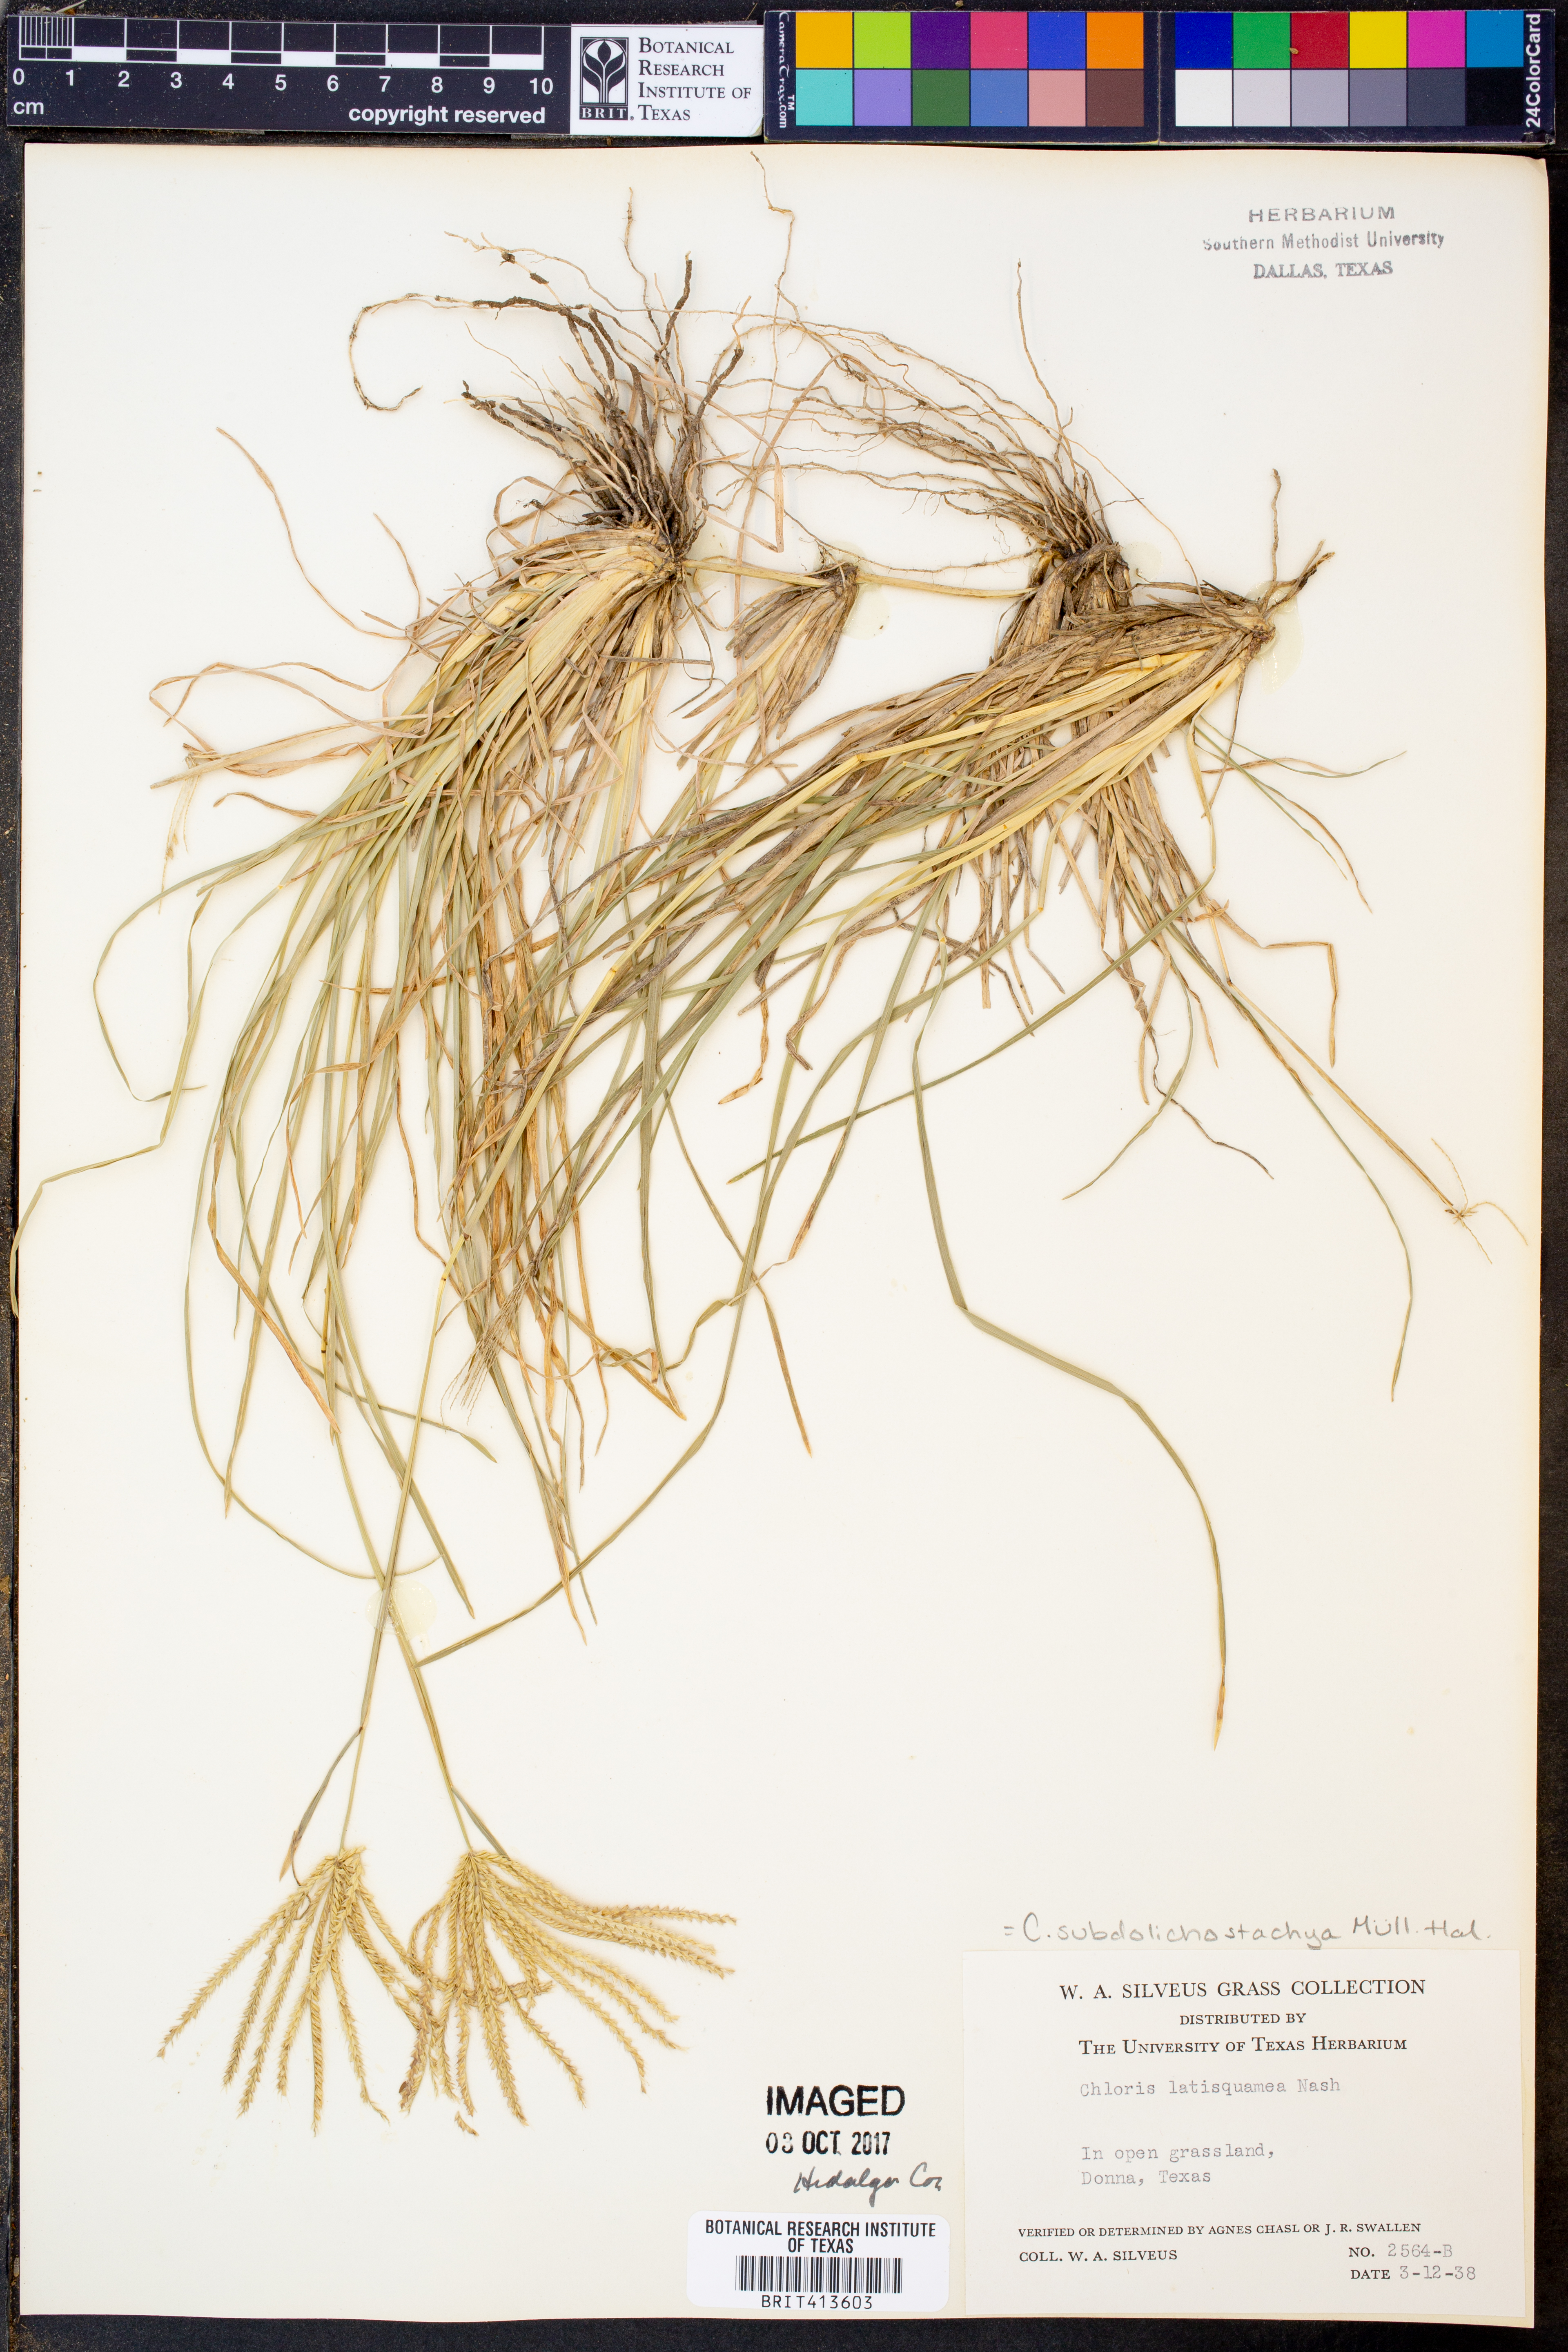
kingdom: Plantae
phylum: Tracheophyta
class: Liliopsida
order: Poales
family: Poaceae
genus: Chloris
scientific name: Chloris subdolichostachya
